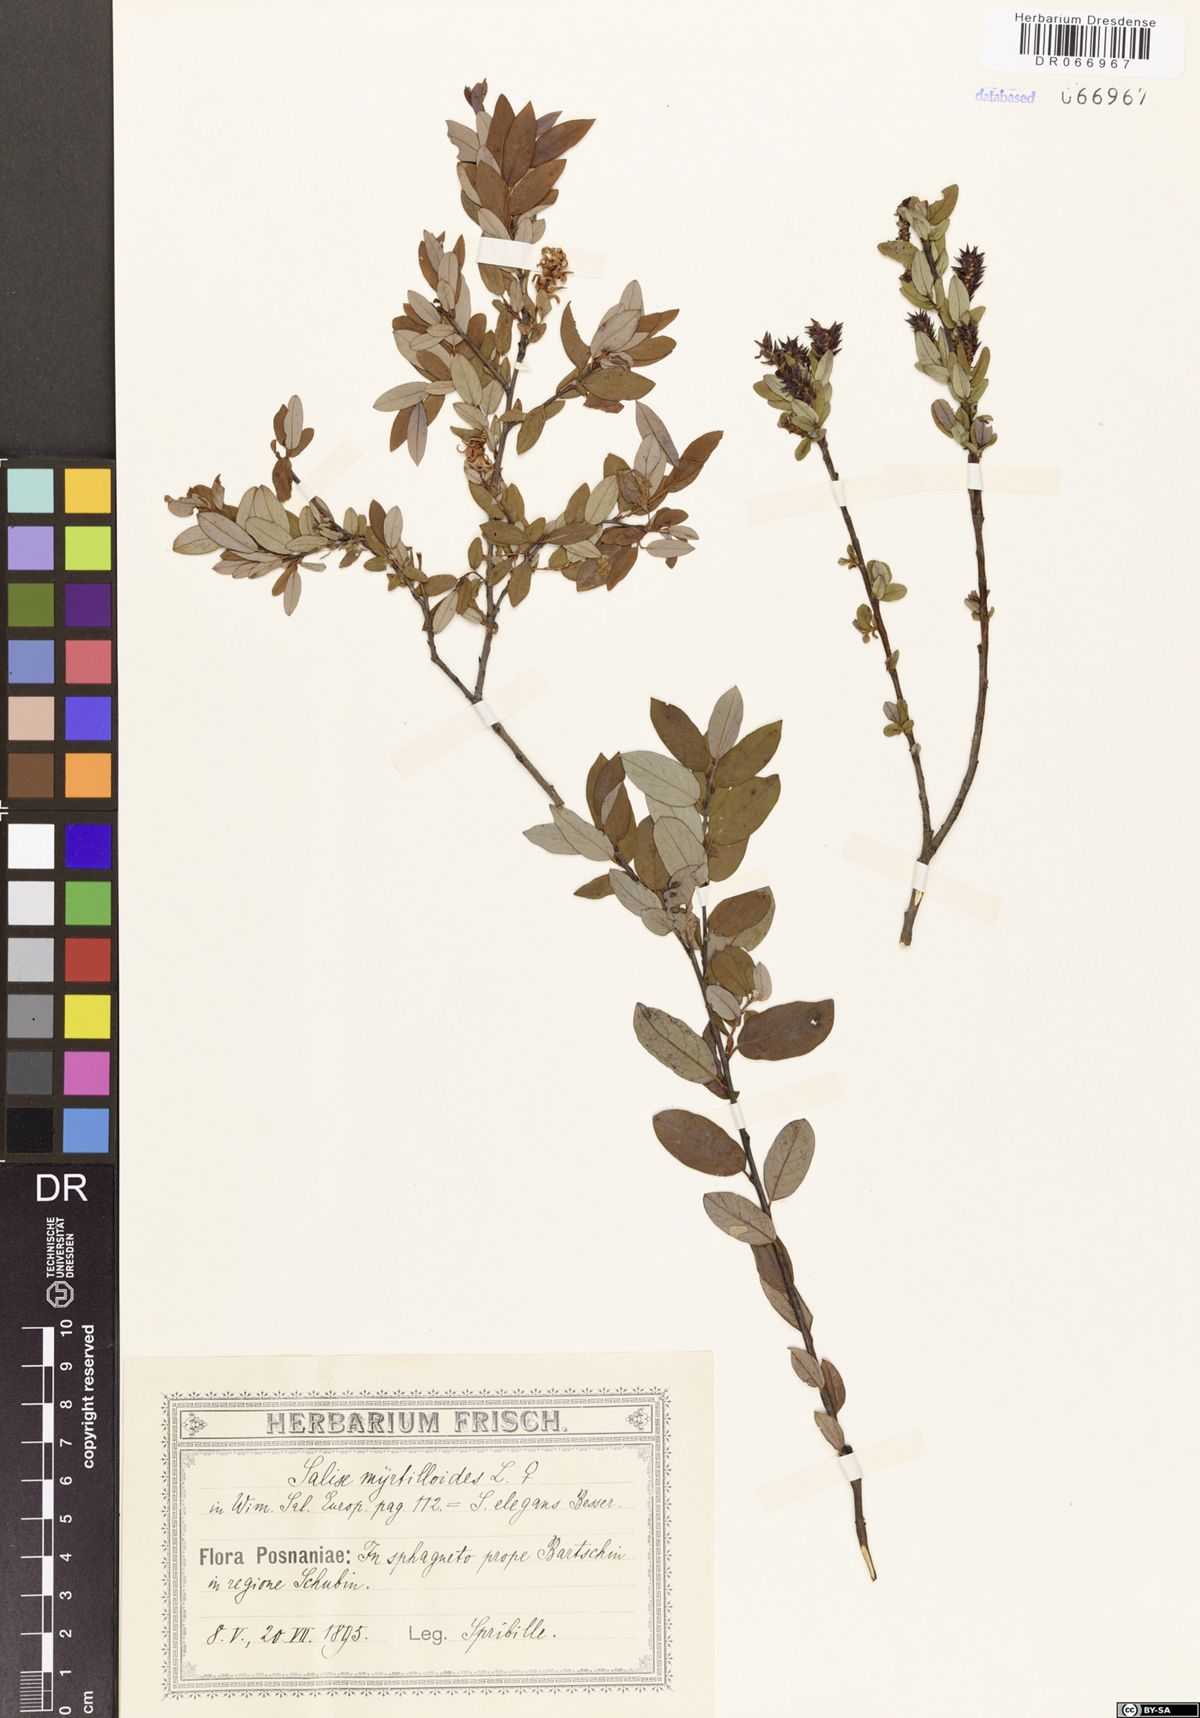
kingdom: Plantae
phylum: Tracheophyta
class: Magnoliopsida
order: Malpighiales
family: Salicaceae
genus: Salix
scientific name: Salix myrtilloides
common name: Myrtle-leaved willow
